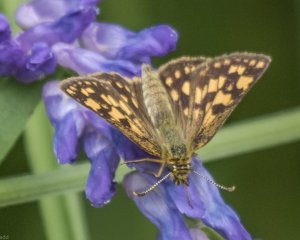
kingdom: Animalia
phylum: Arthropoda
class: Insecta
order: Lepidoptera
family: Hesperiidae
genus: Carterocephalus
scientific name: Carterocephalus palaemon
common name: Chequered Skipper
